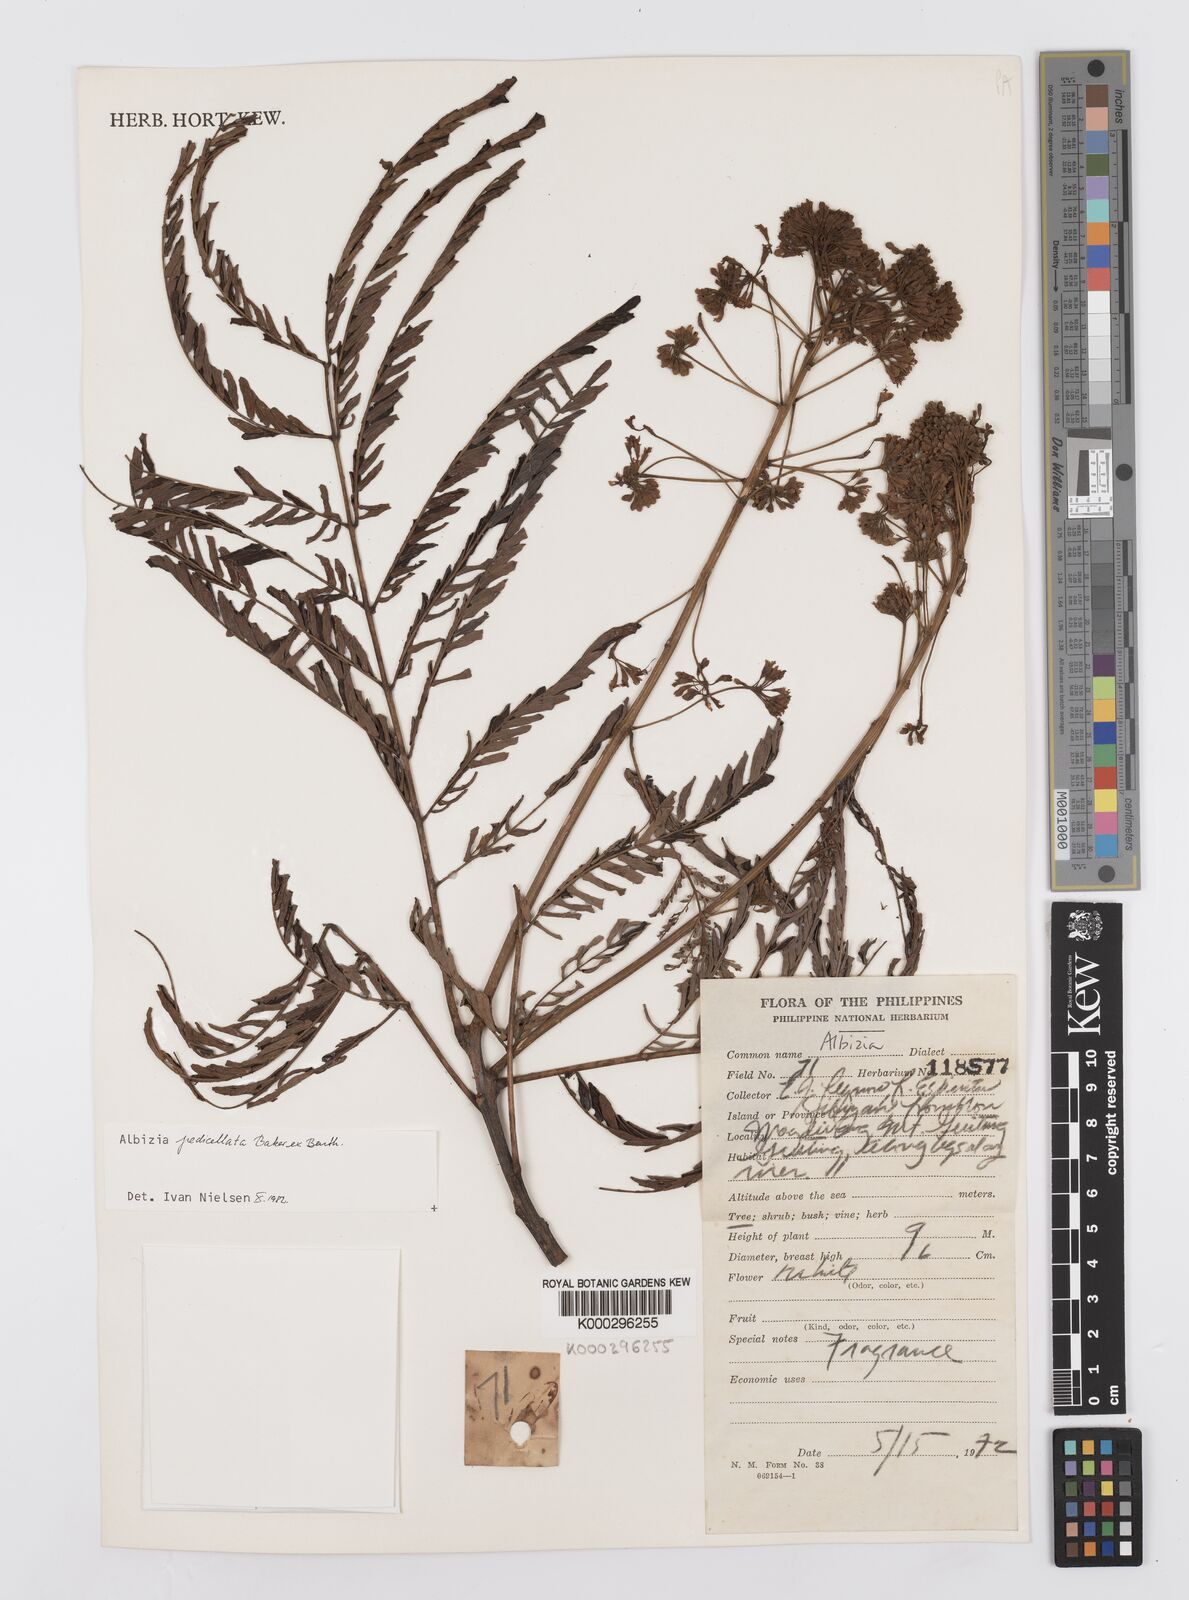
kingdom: Plantae
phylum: Tracheophyta
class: Magnoliopsida
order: Fabales
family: Fabaceae
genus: Albizia
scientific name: Albizia pedicellata
